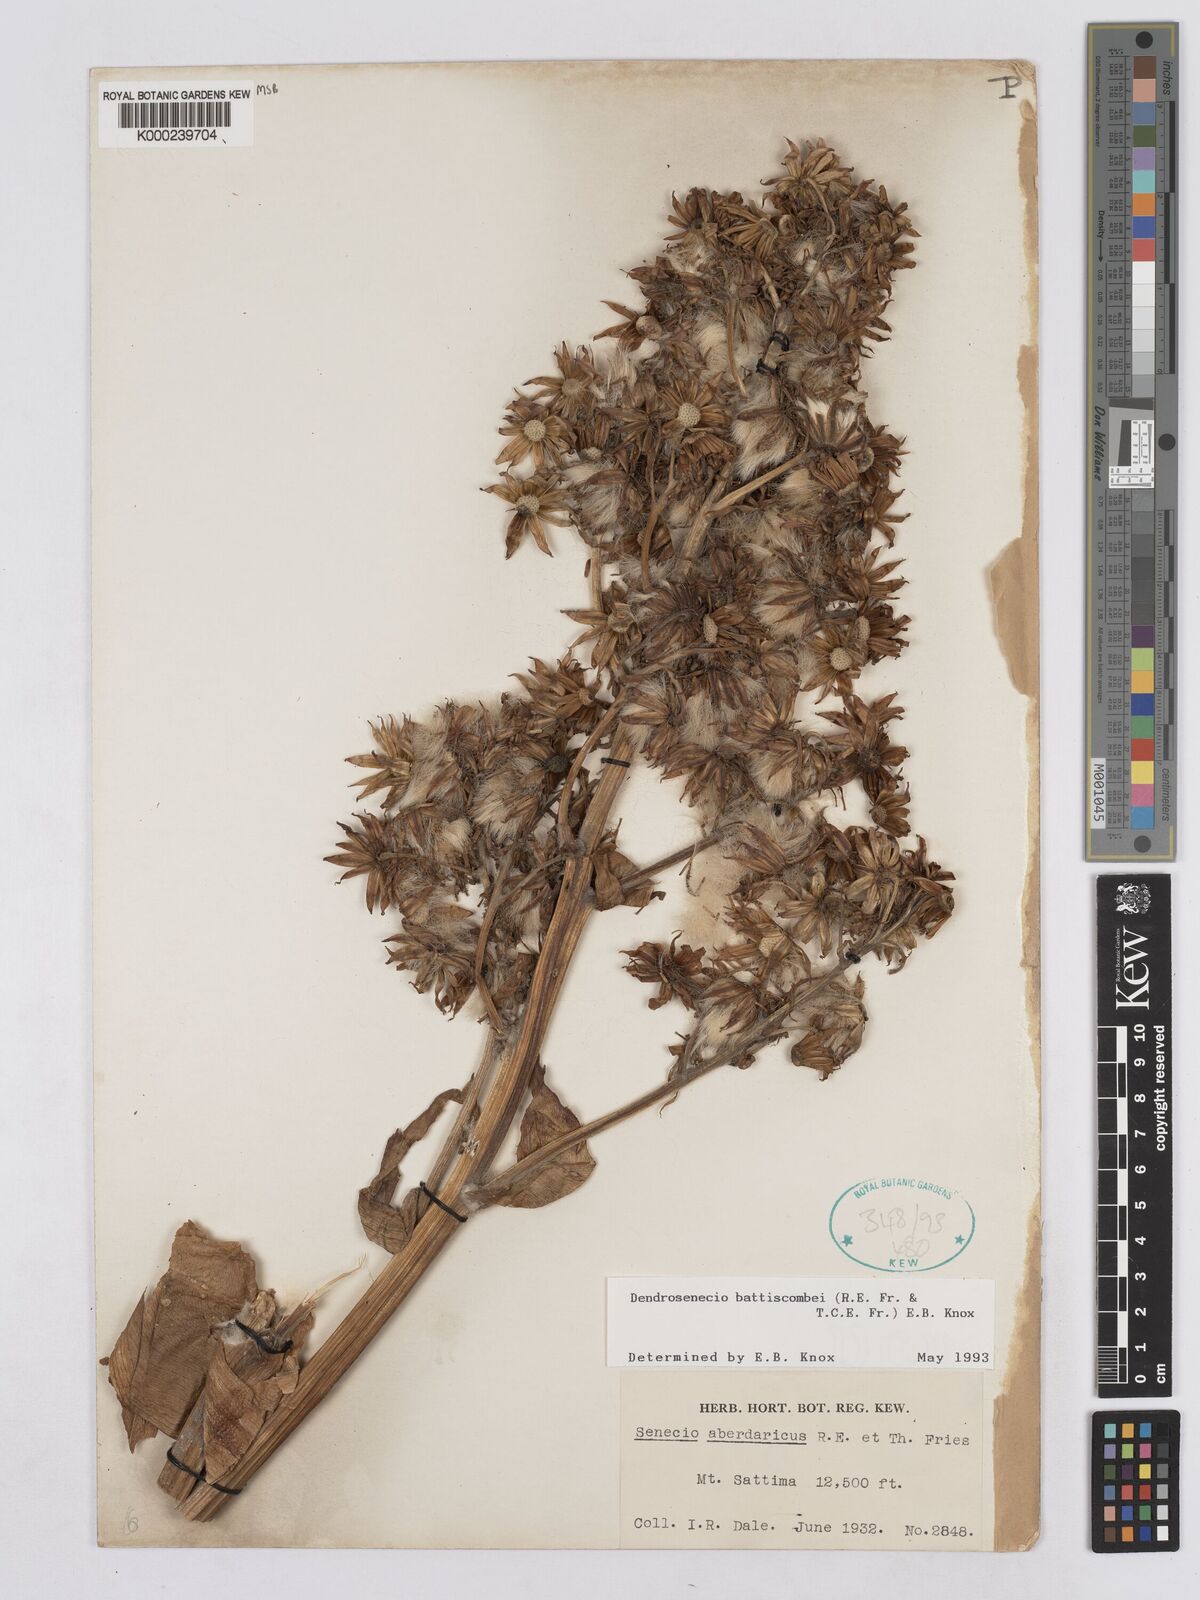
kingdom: Plantae
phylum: Tracheophyta
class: Magnoliopsida
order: Asterales
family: Asteraceae
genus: Dendrosenecio
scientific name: Dendrosenecio battiscombei
